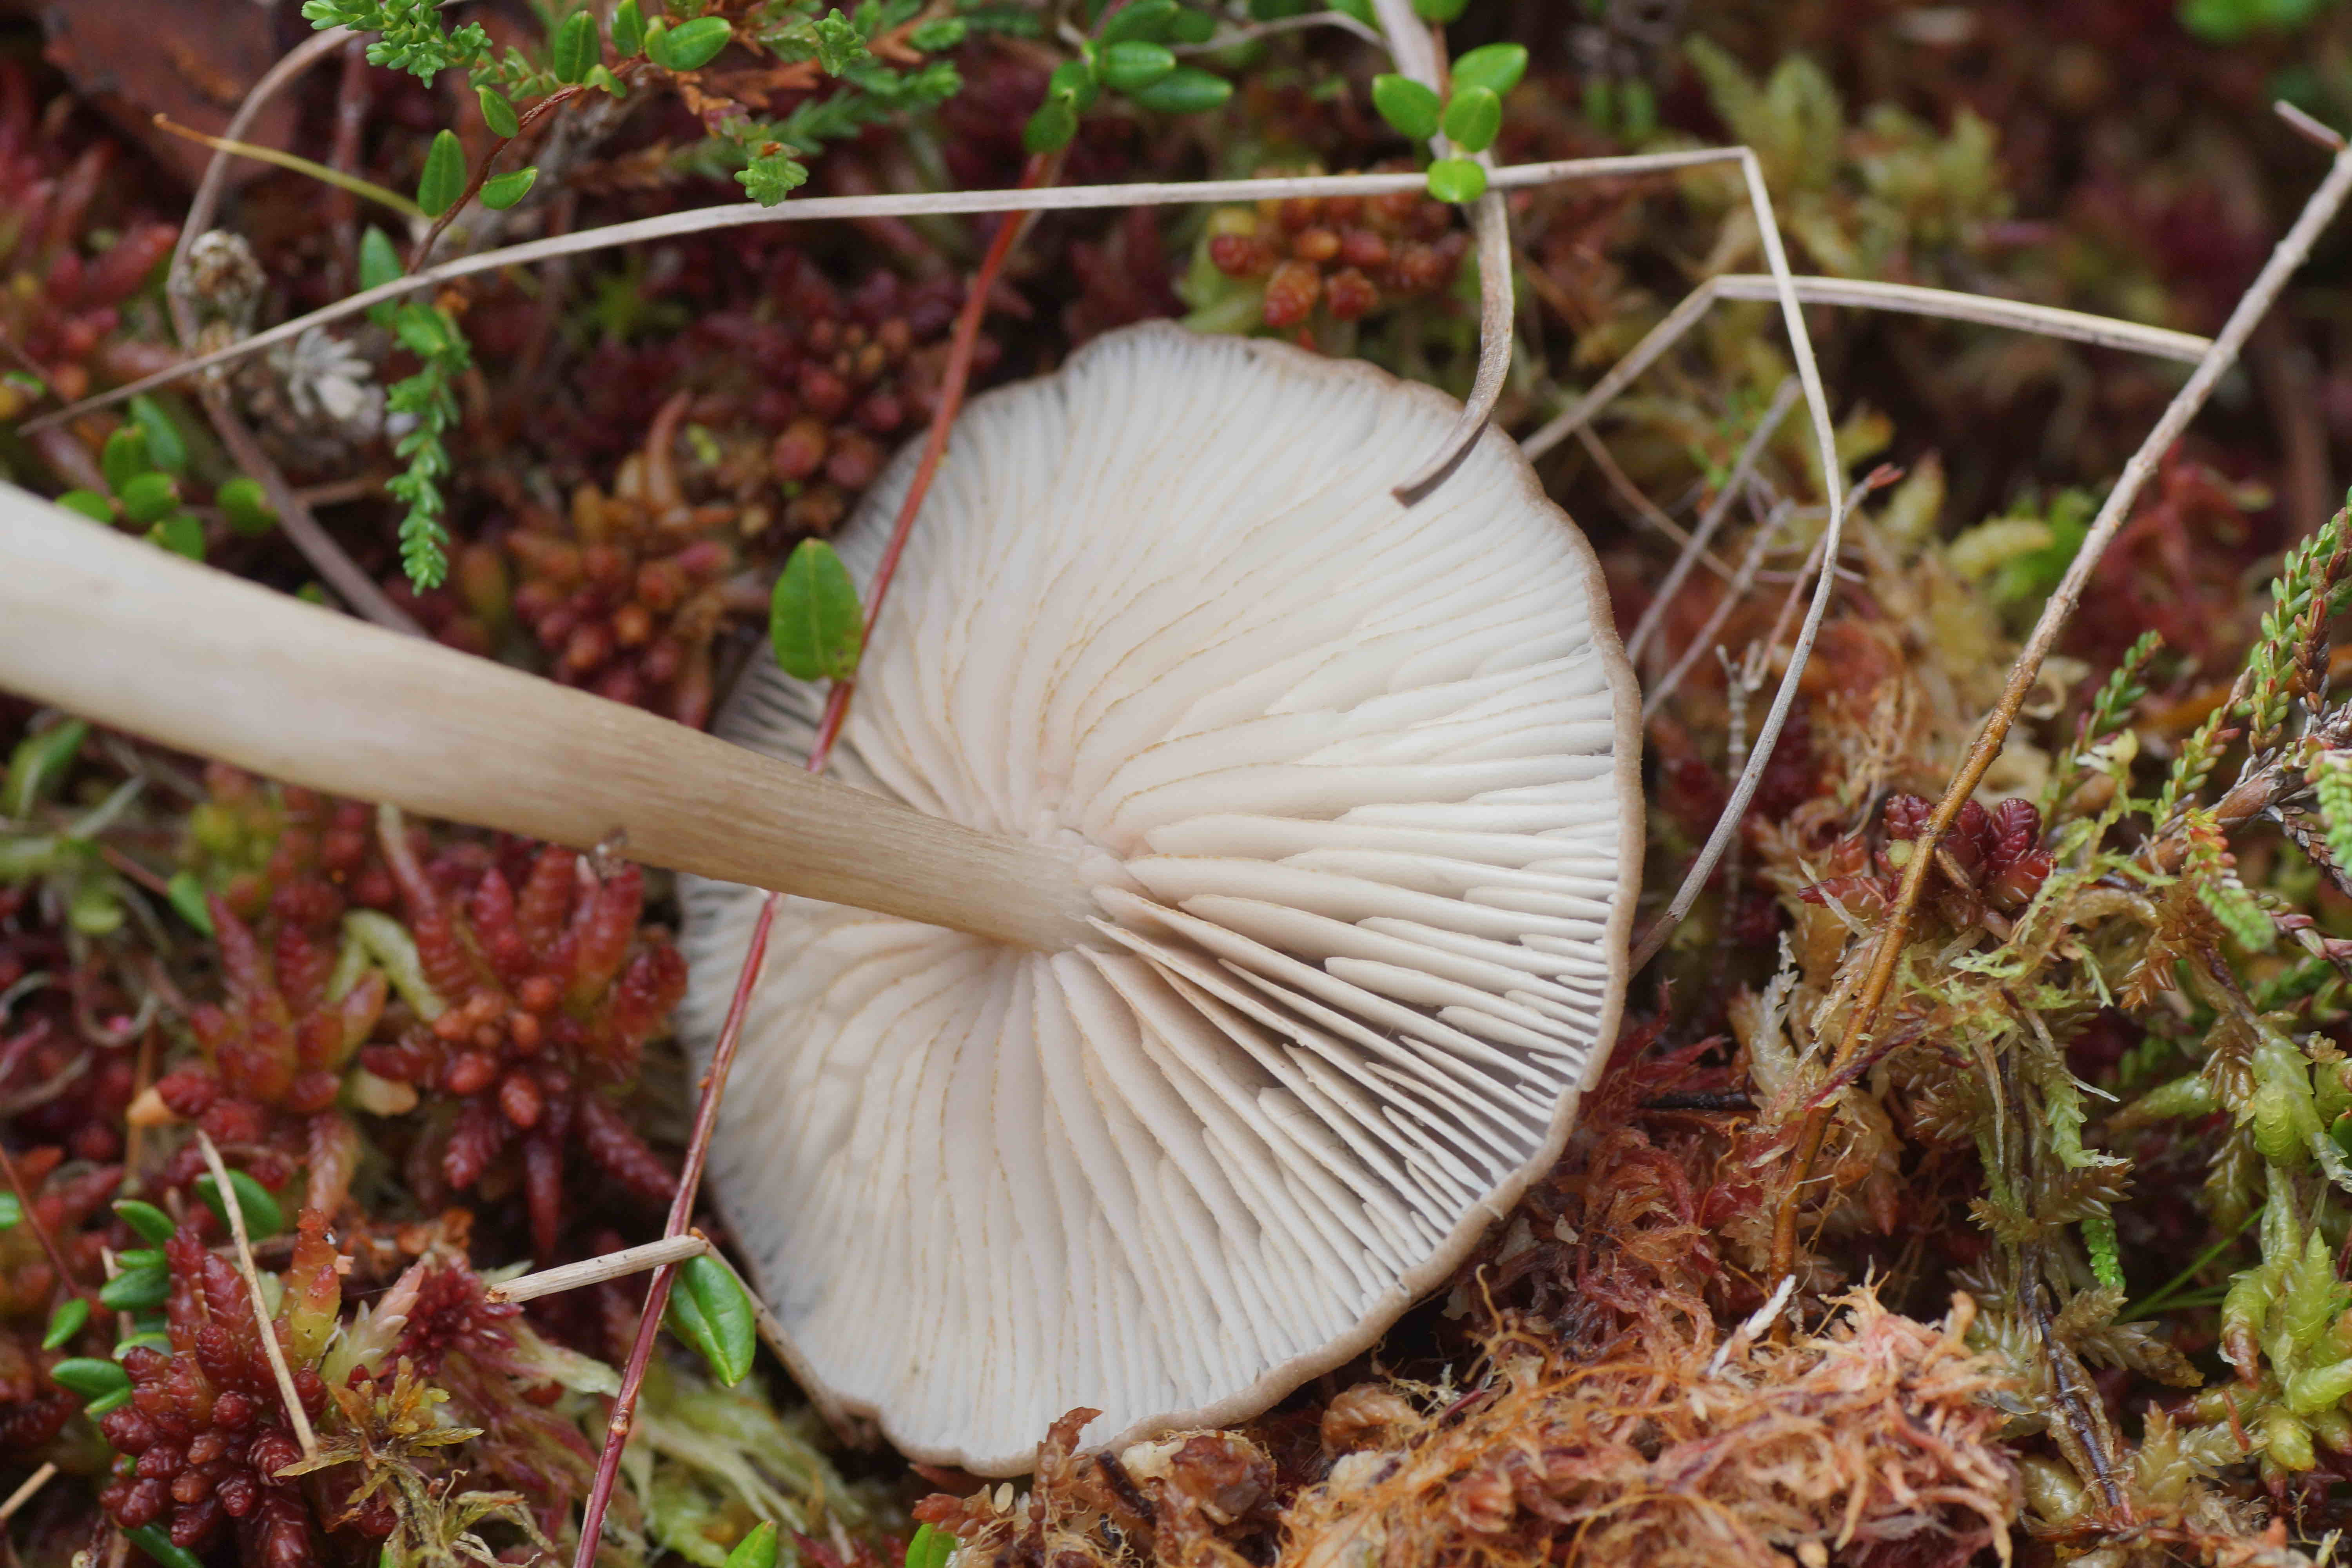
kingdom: Fungi
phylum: Basidiomycota
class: Agaricomycetes
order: Agaricales
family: Entolomataceae
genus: Entoloma
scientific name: Entoloma elodes
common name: mørkægget rødblad
